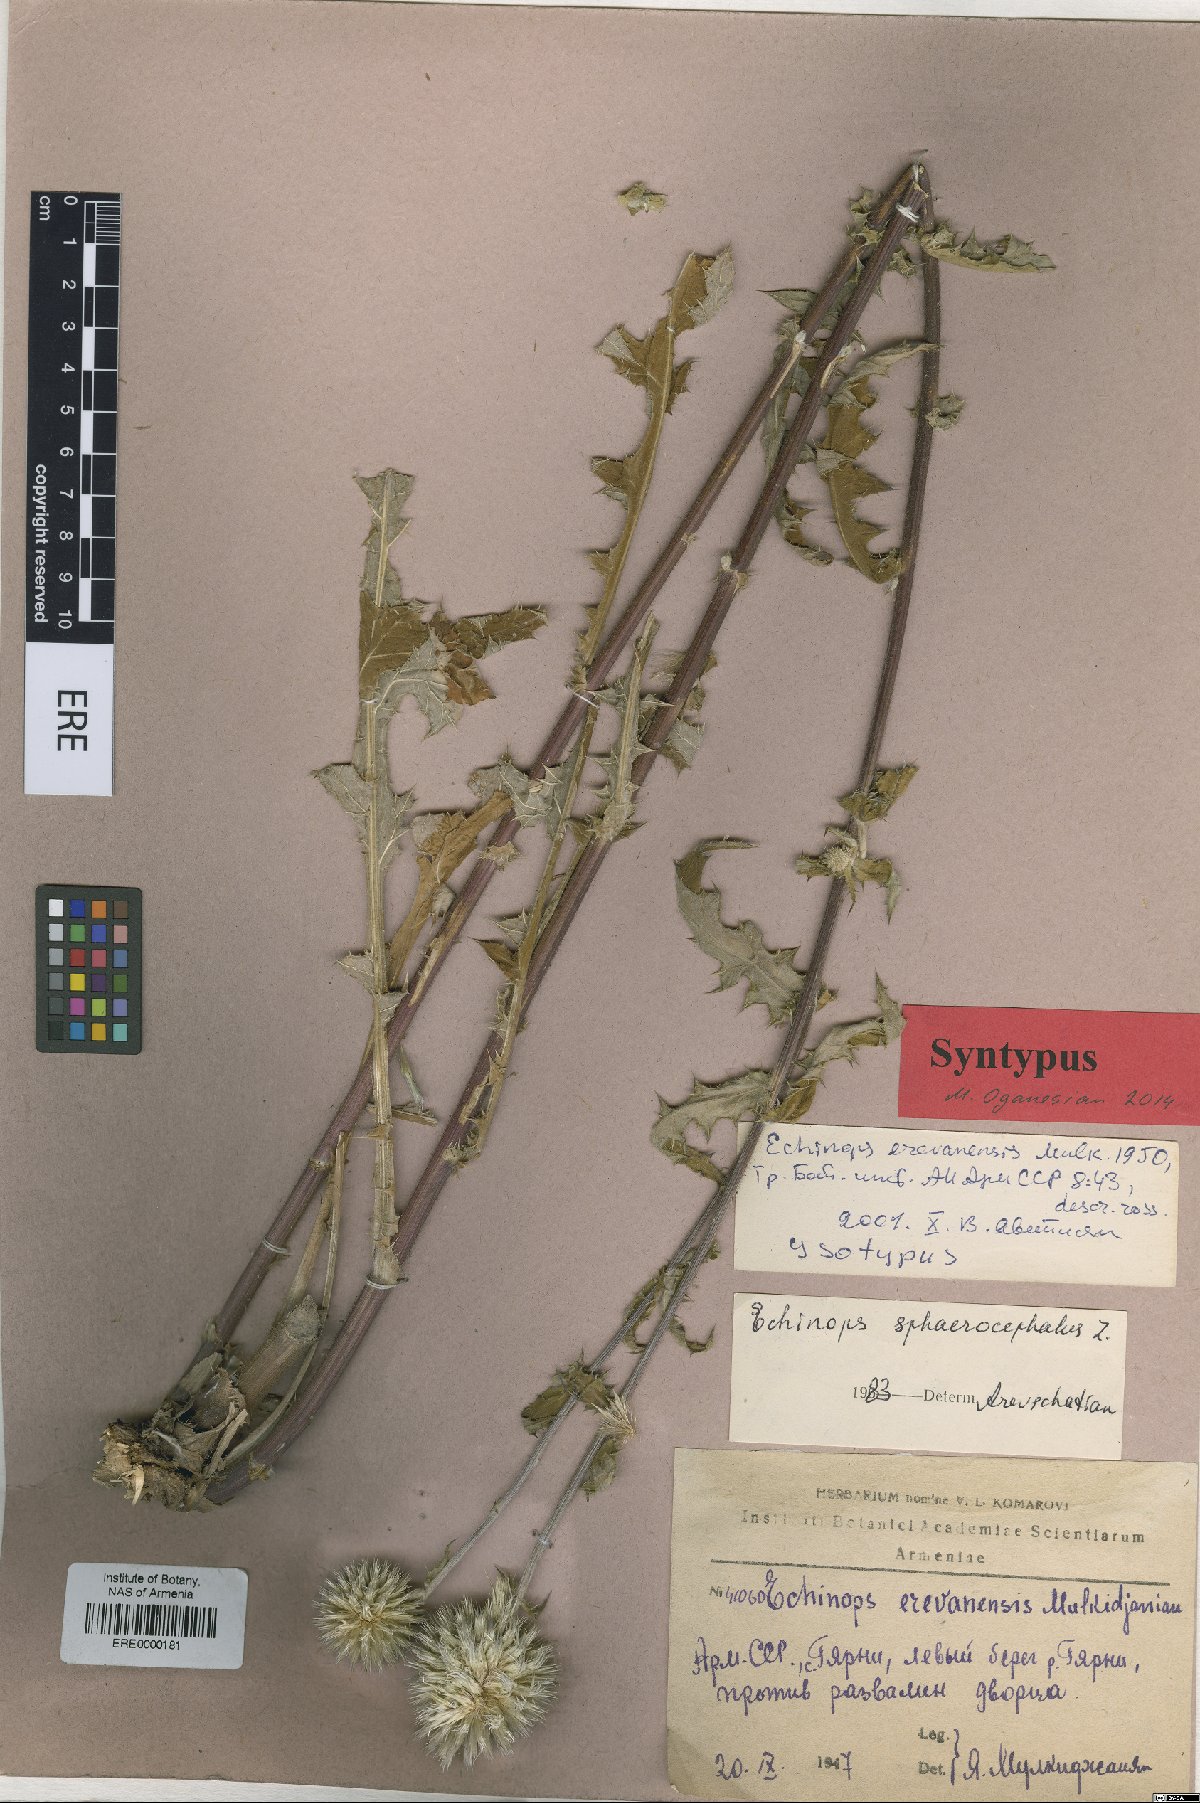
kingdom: Plantae
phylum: Tracheophyta
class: Magnoliopsida
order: Asterales
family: Asteraceae
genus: Echinops
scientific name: Echinops sphaerocephalus
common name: Glandular globe-thistle
